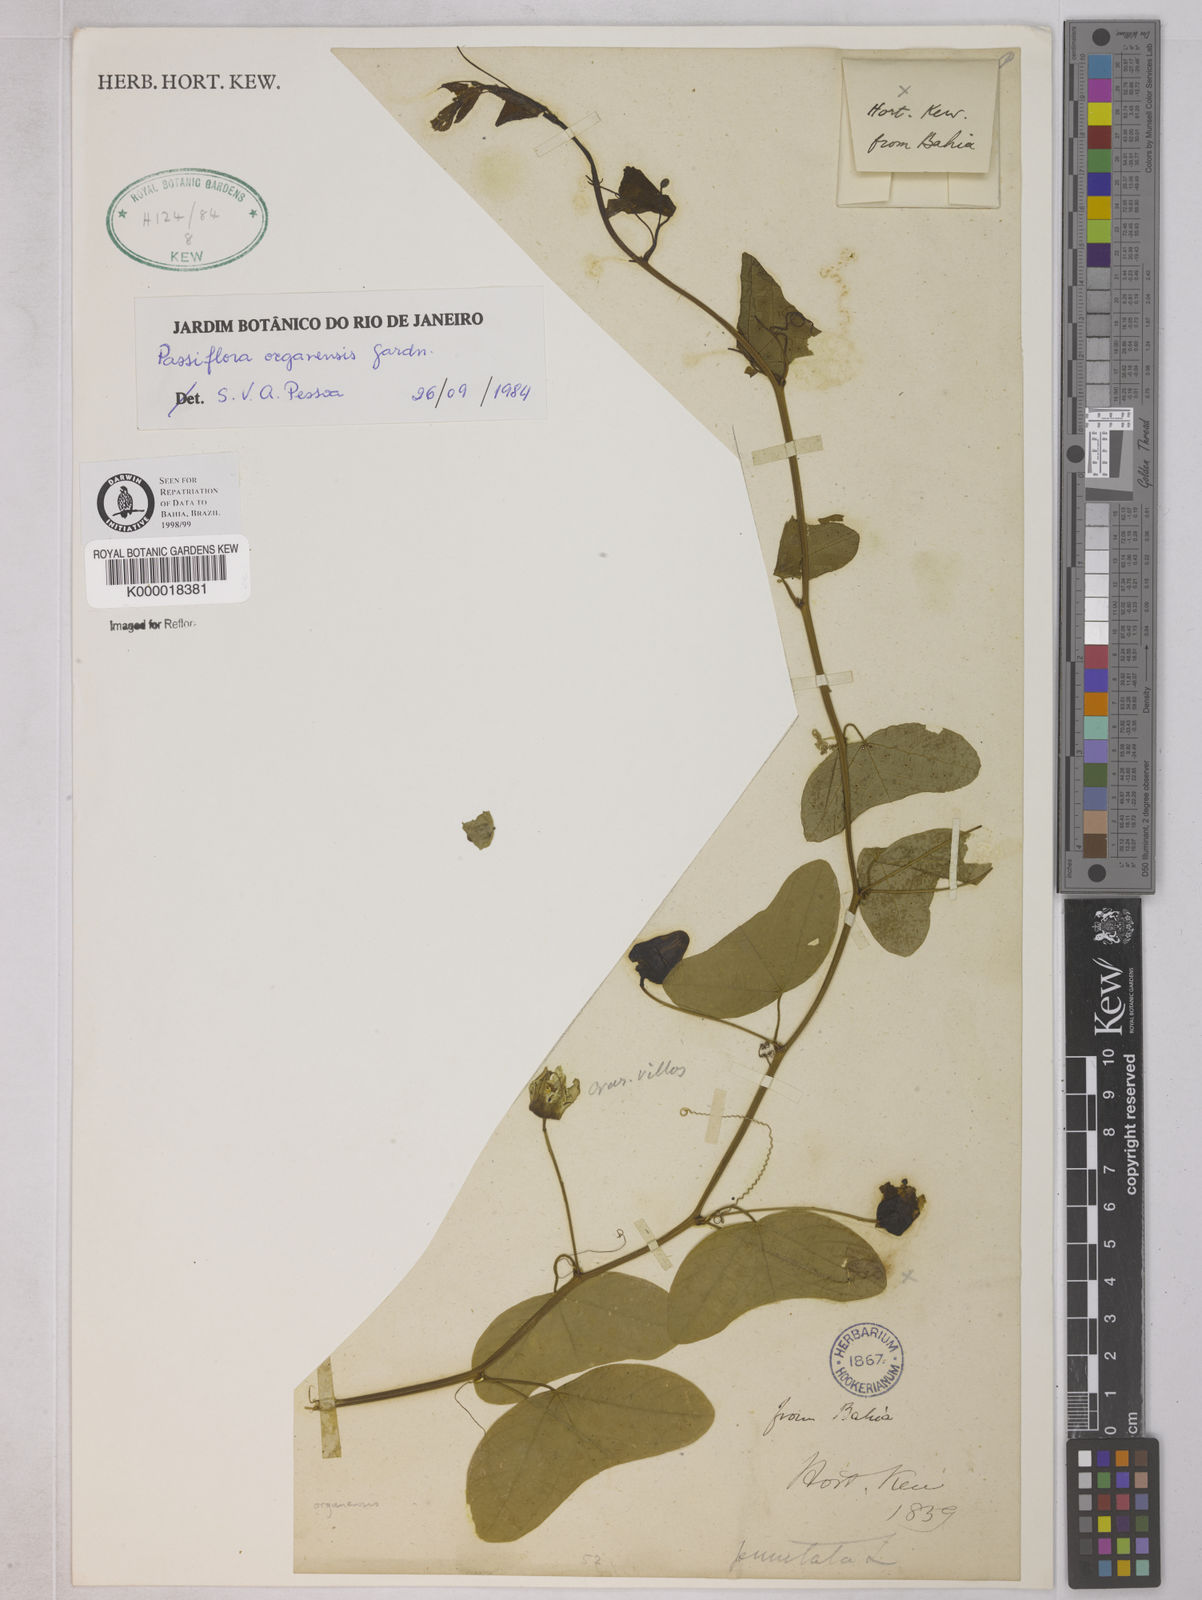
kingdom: Plantae
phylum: Tracheophyta
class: Magnoliopsida
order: Malpighiales
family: Passifloraceae
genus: Passiflora
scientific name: Passiflora porophylla
